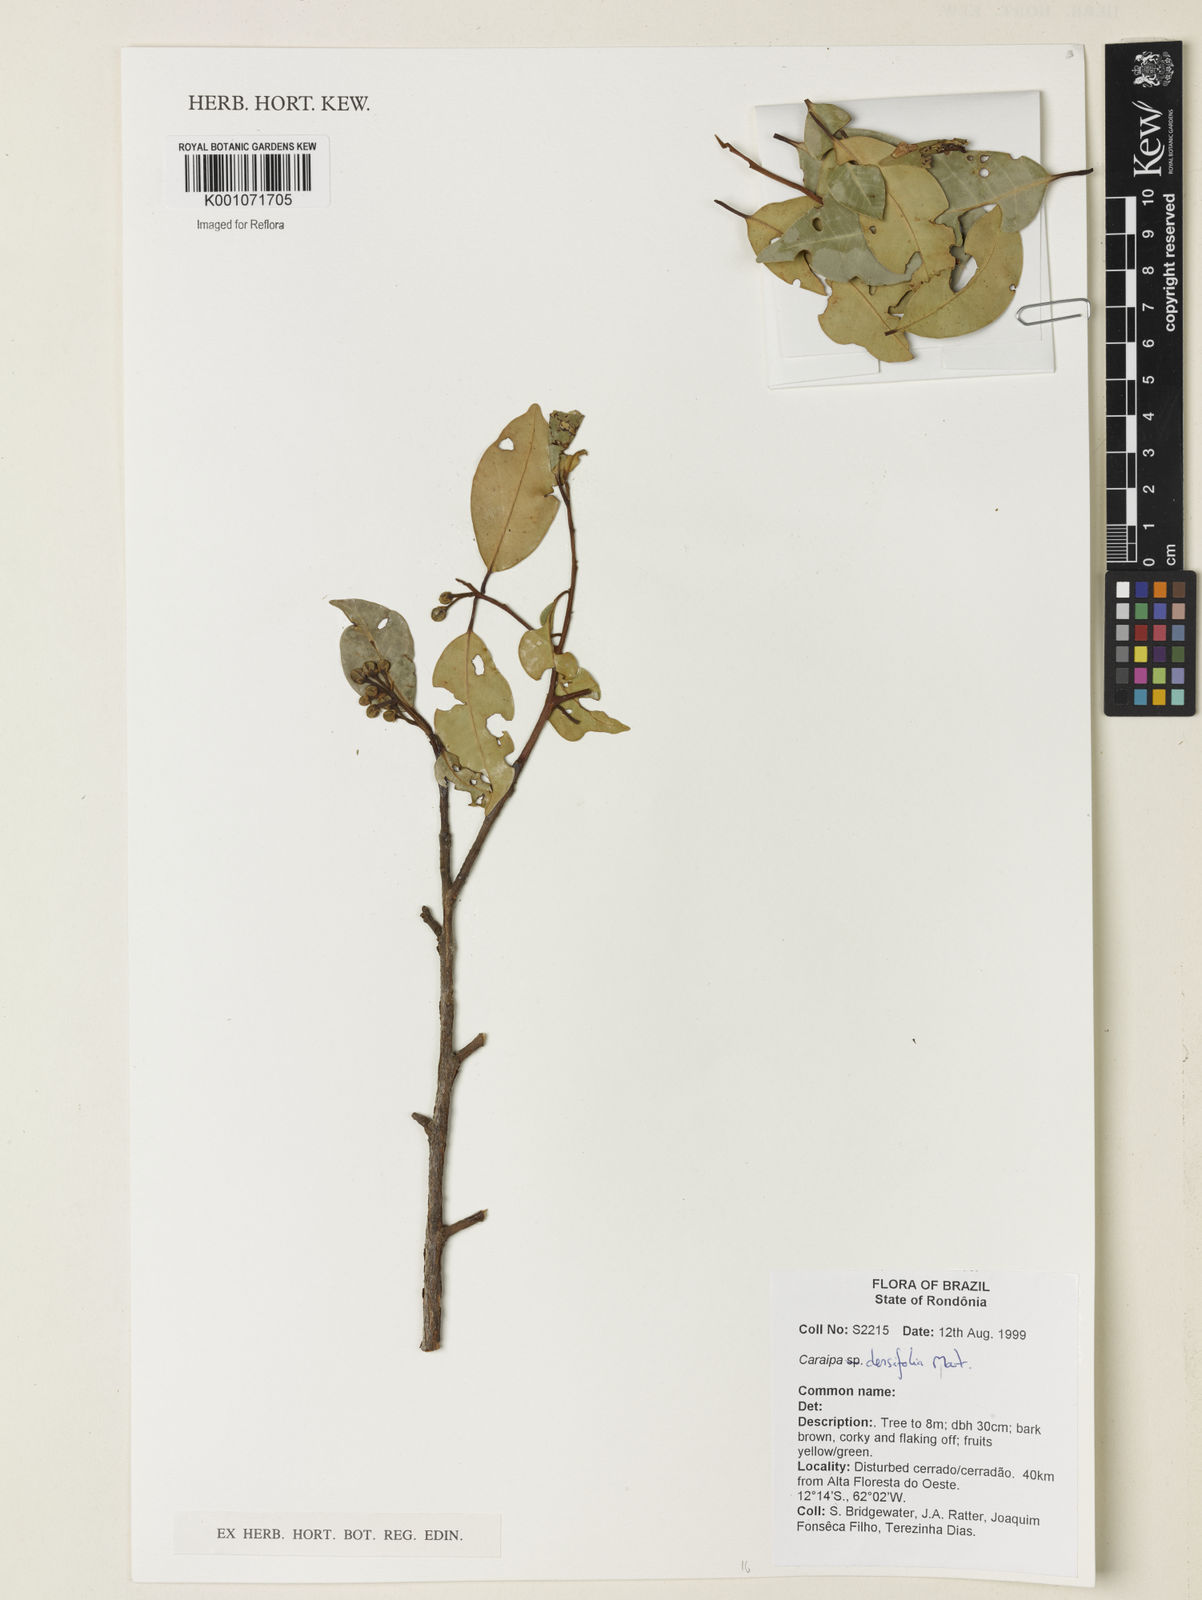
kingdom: Plantae
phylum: Tracheophyta
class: Magnoliopsida
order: Malpighiales
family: Calophyllaceae
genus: Caraipa
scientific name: Caraipa densifolia
